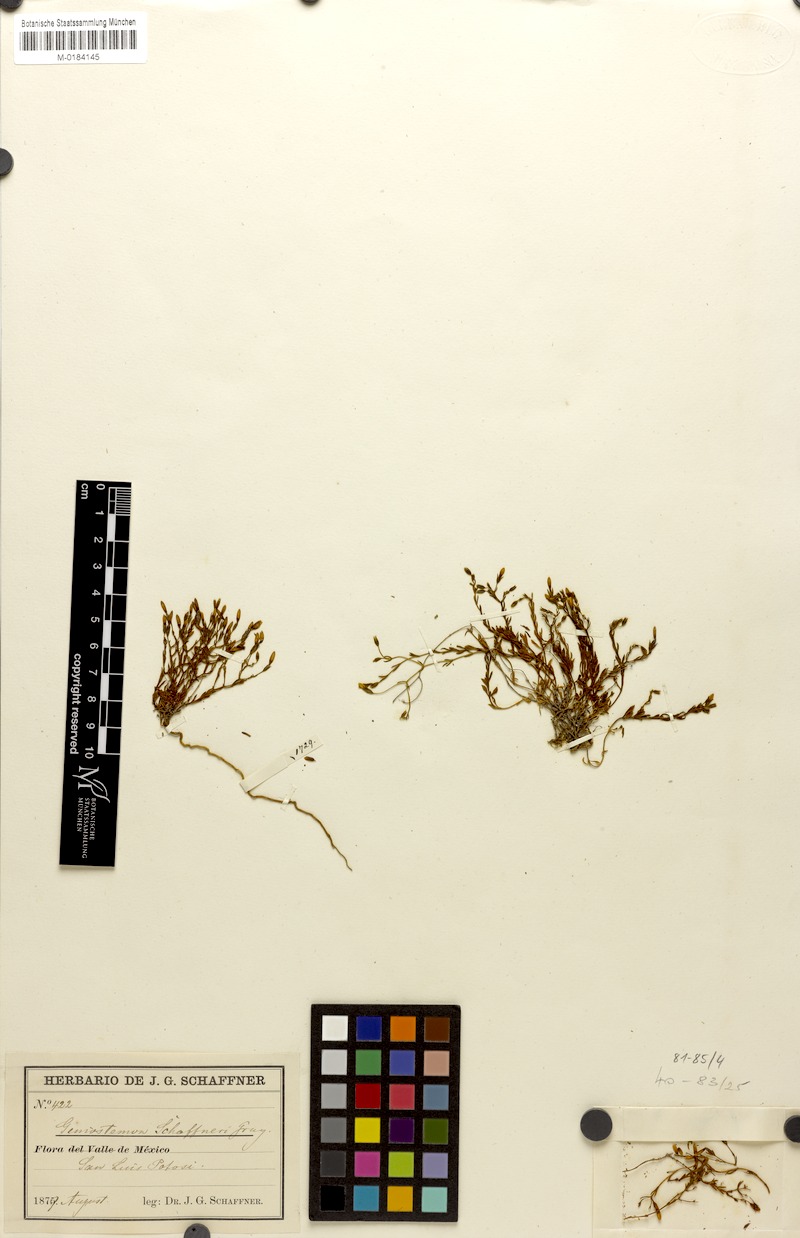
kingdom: Plantae
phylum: Tracheophyta
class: Magnoliopsida
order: Gentianales
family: Gentianaceae
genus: Geniostemon
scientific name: Geniostemon schaffneri
